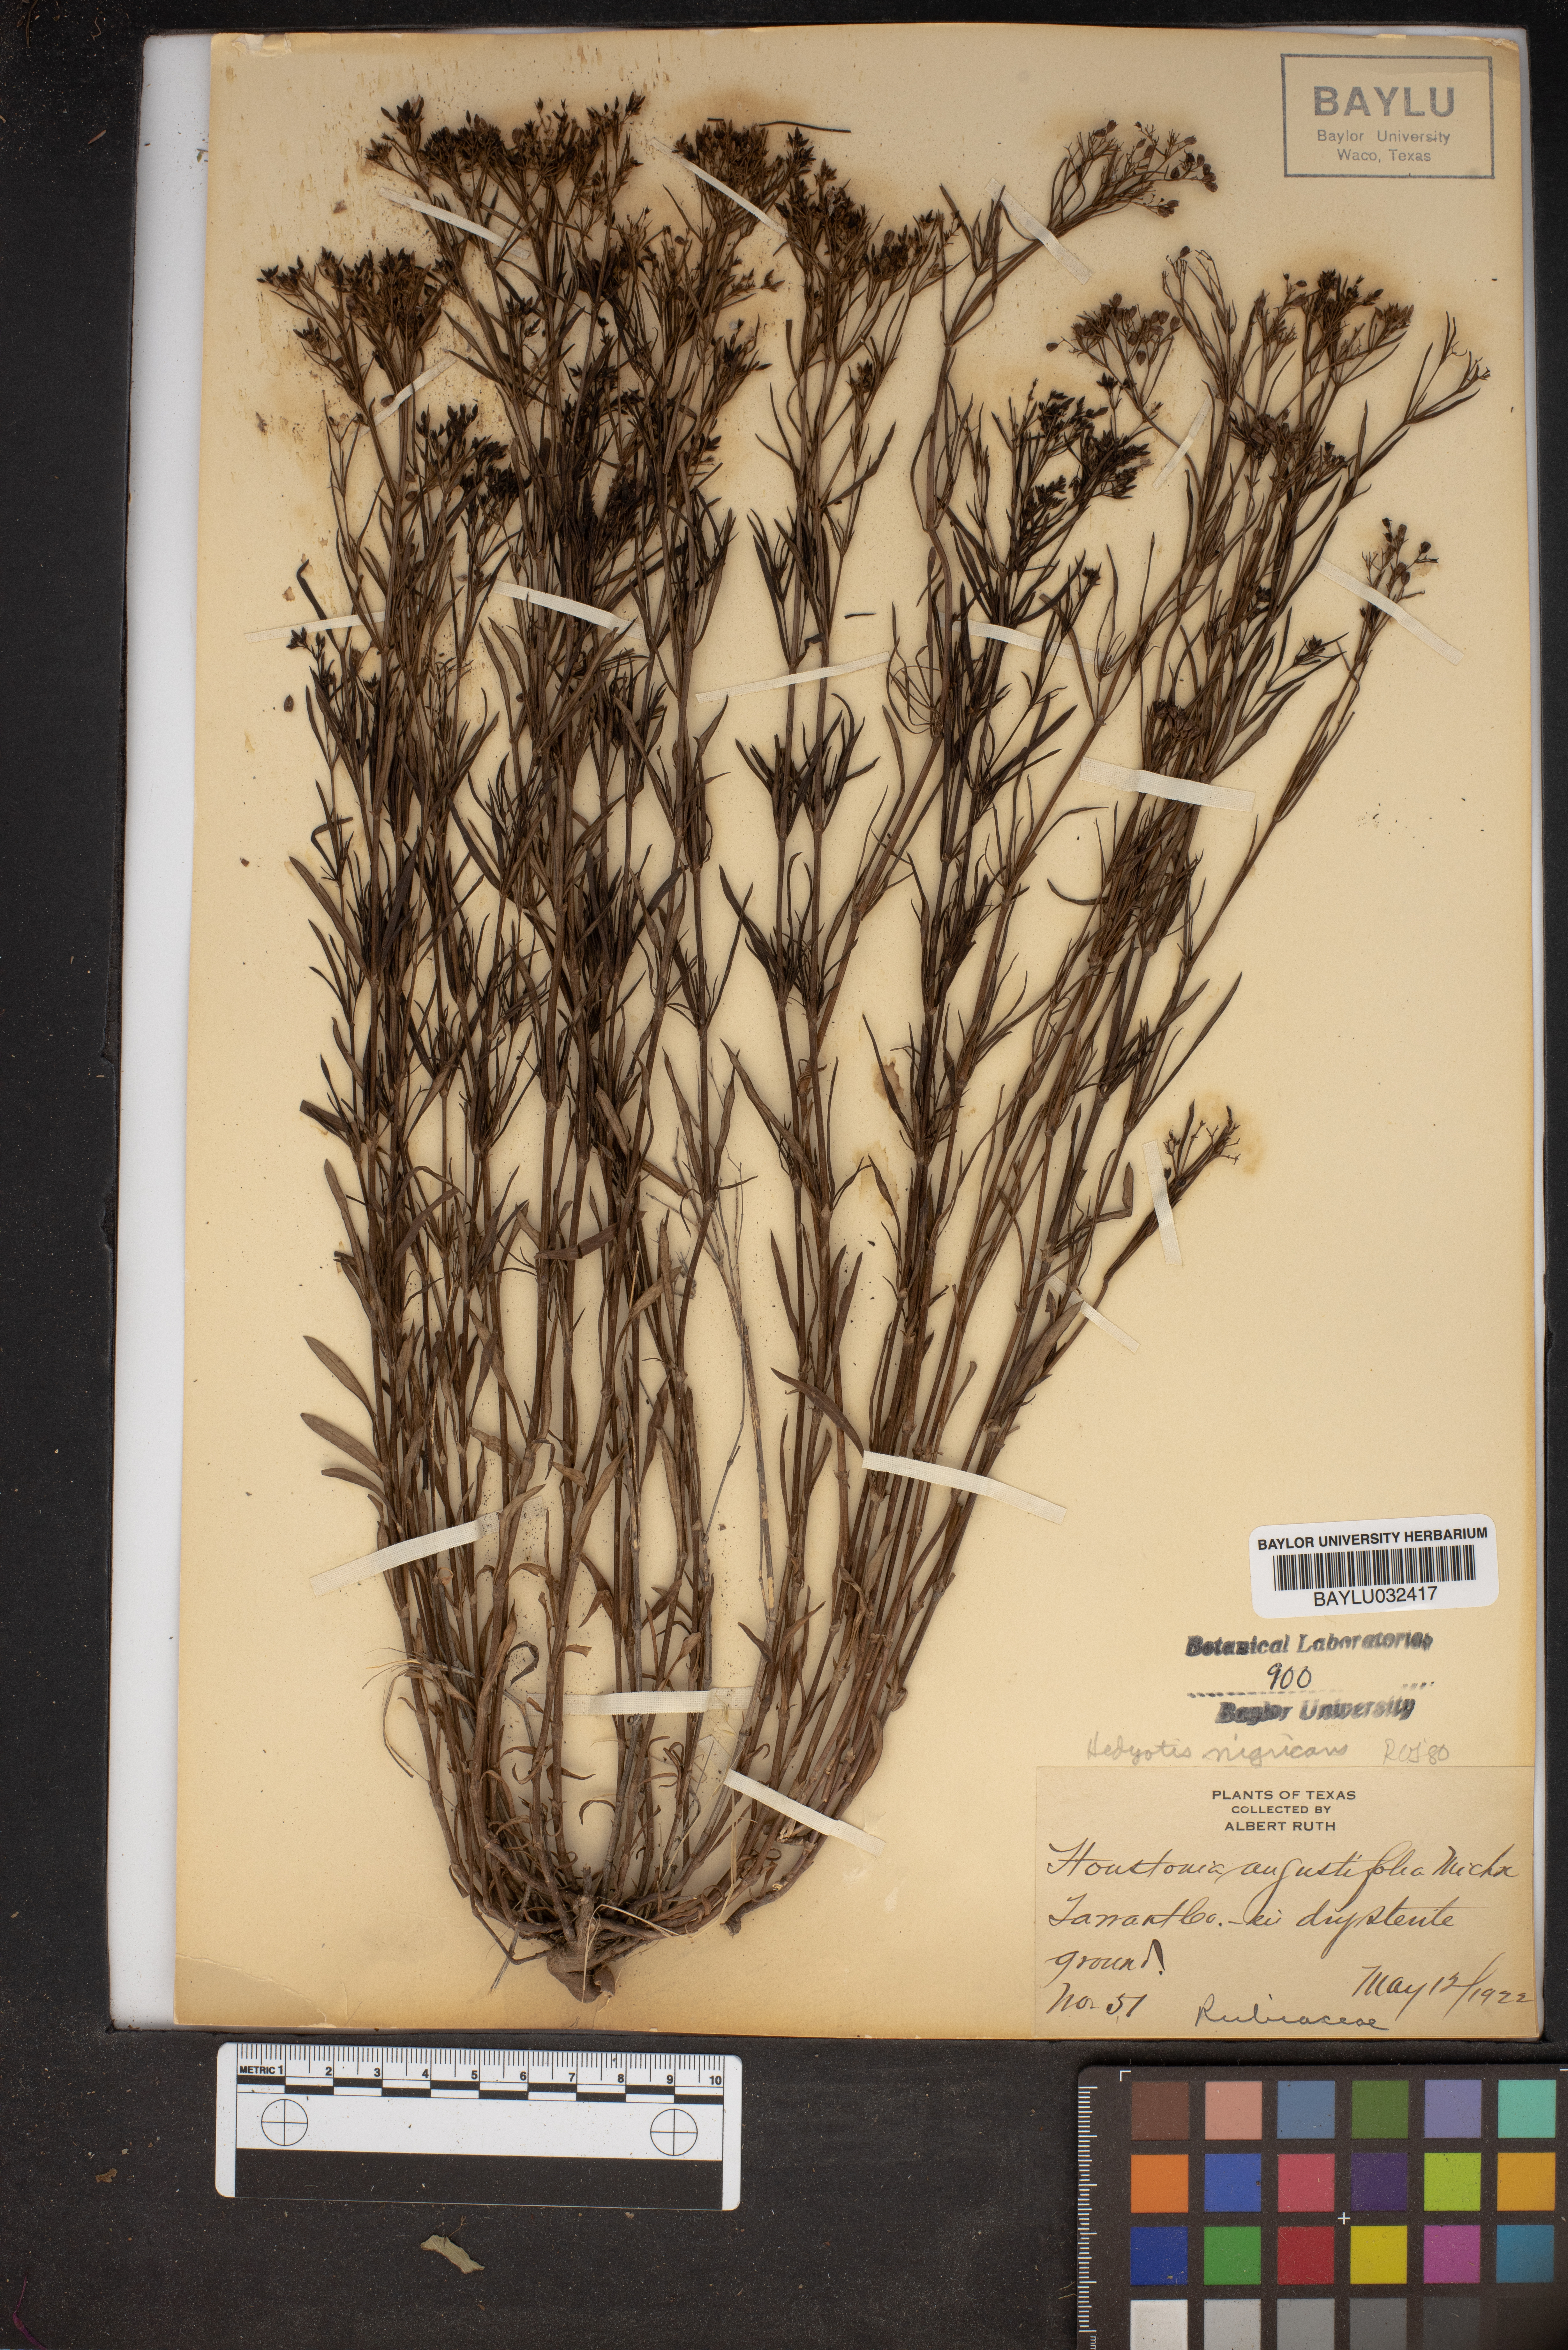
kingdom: Plantae
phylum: Tracheophyta
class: Magnoliopsida
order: Gentianales
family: Rubiaceae
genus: Stenaria
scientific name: Stenaria nigricans
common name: Diamondflowers
